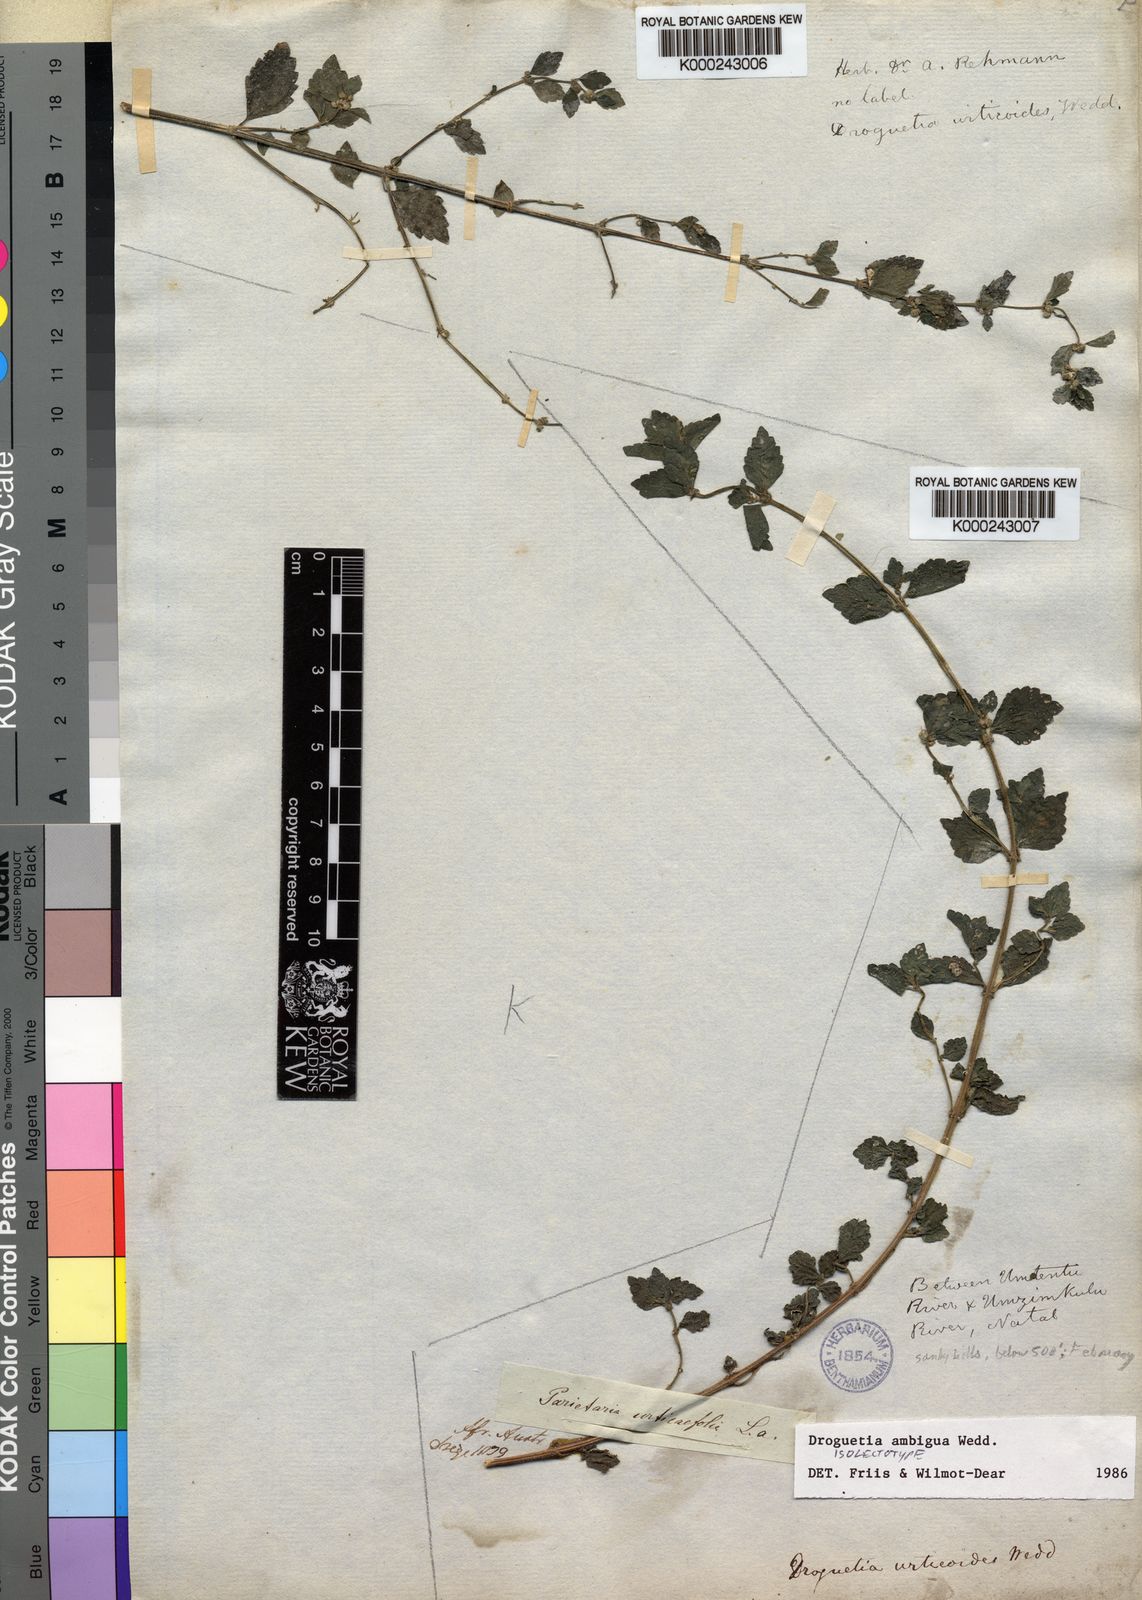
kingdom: Plantae
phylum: Tracheophyta
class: Magnoliopsida
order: Rosales
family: Urticaceae
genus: Droguetia
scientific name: Droguetia ambigua
